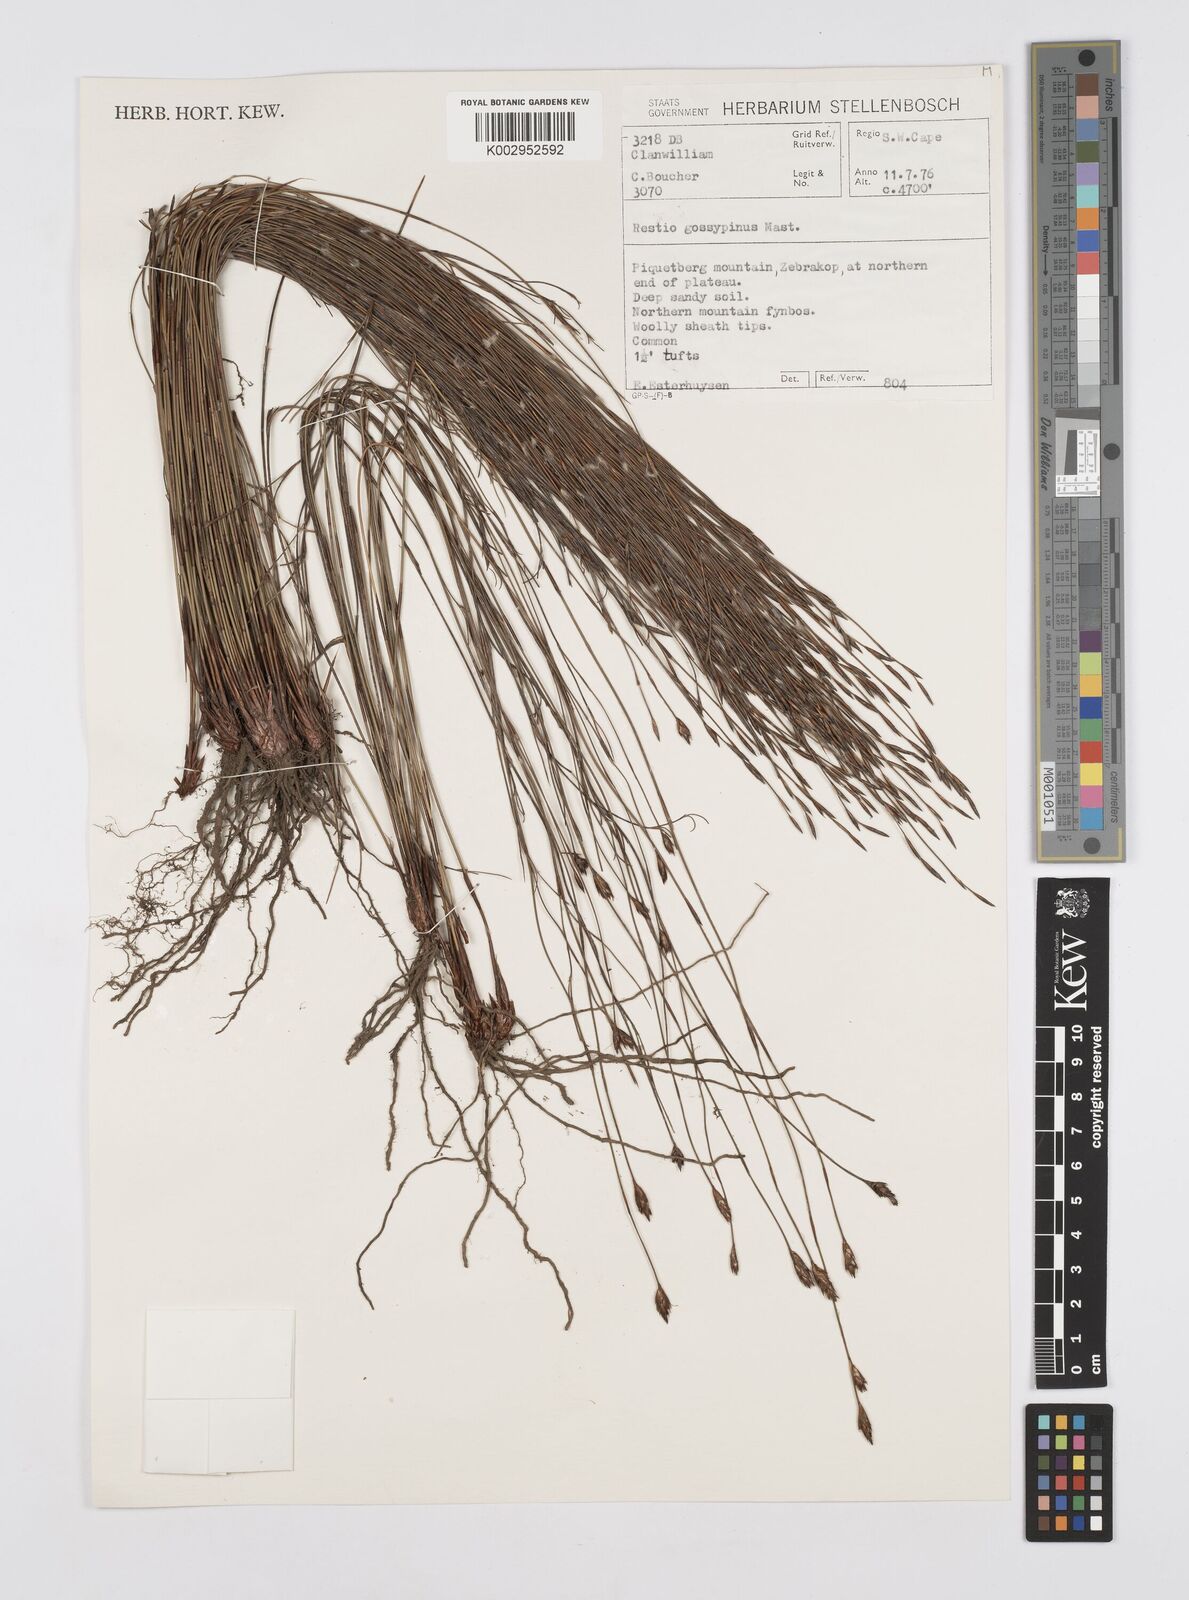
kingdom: Plantae
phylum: Tracheophyta
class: Liliopsida
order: Poales
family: Restionaceae
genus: Restio
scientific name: Restio gossypinus
